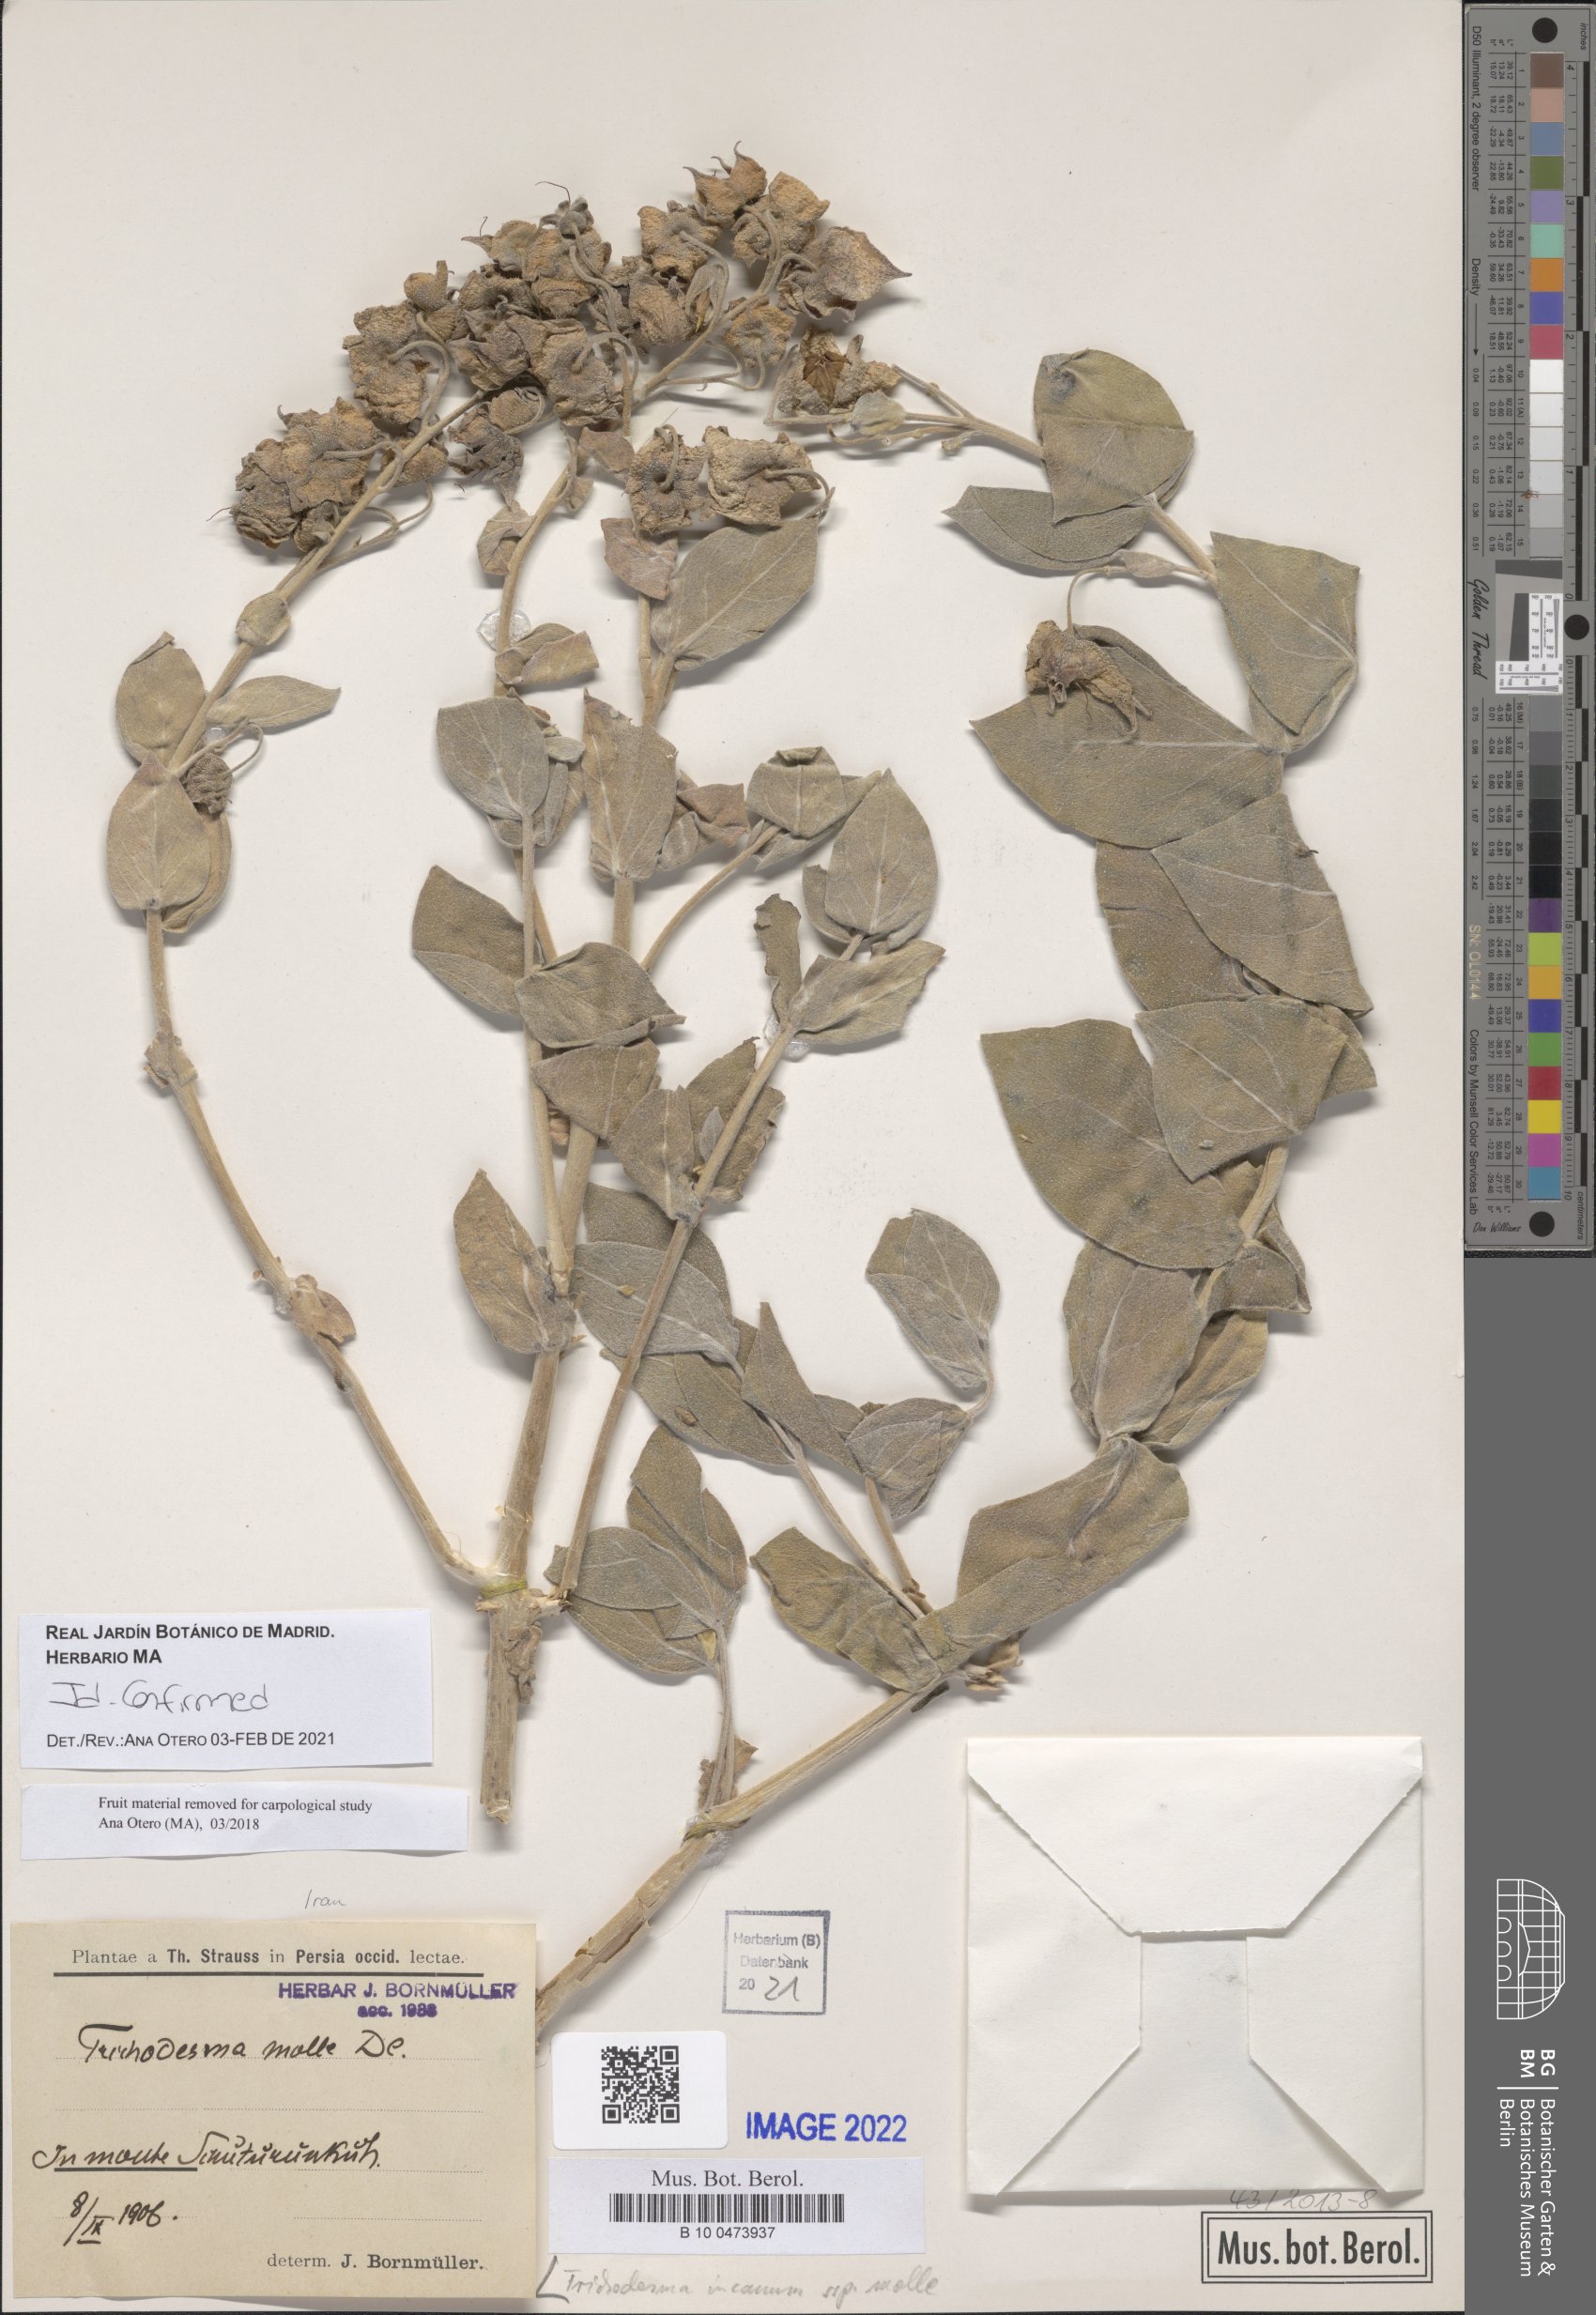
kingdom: Plantae
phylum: Tracheophyta
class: Magnoliopsida
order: Boraginales
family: Boraginaceae
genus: Trichodesma
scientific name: Trichodesma incanum
